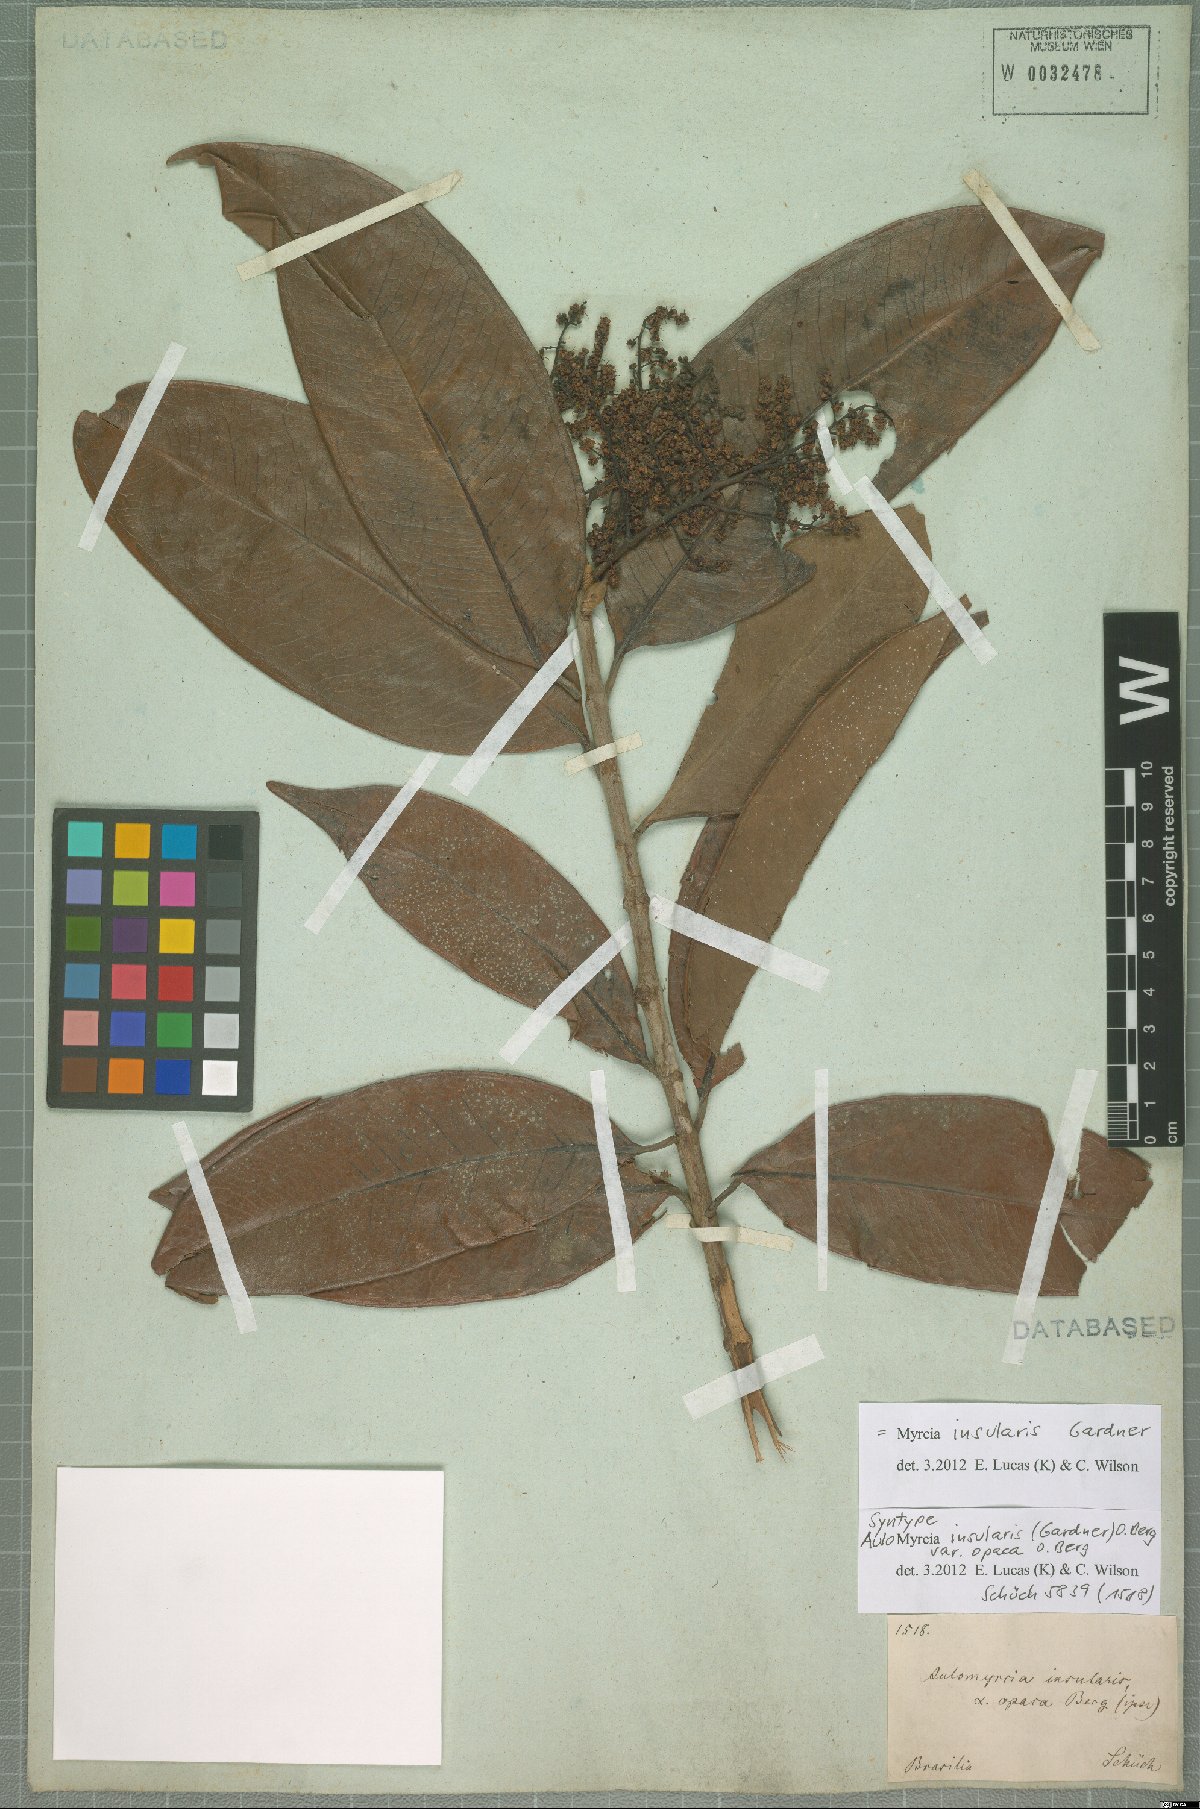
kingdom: Plantae
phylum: Tracheophyta
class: Magnoliopsida
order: Myrtales
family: Myrtaceae
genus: Myrcia
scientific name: Myrcia insularis
